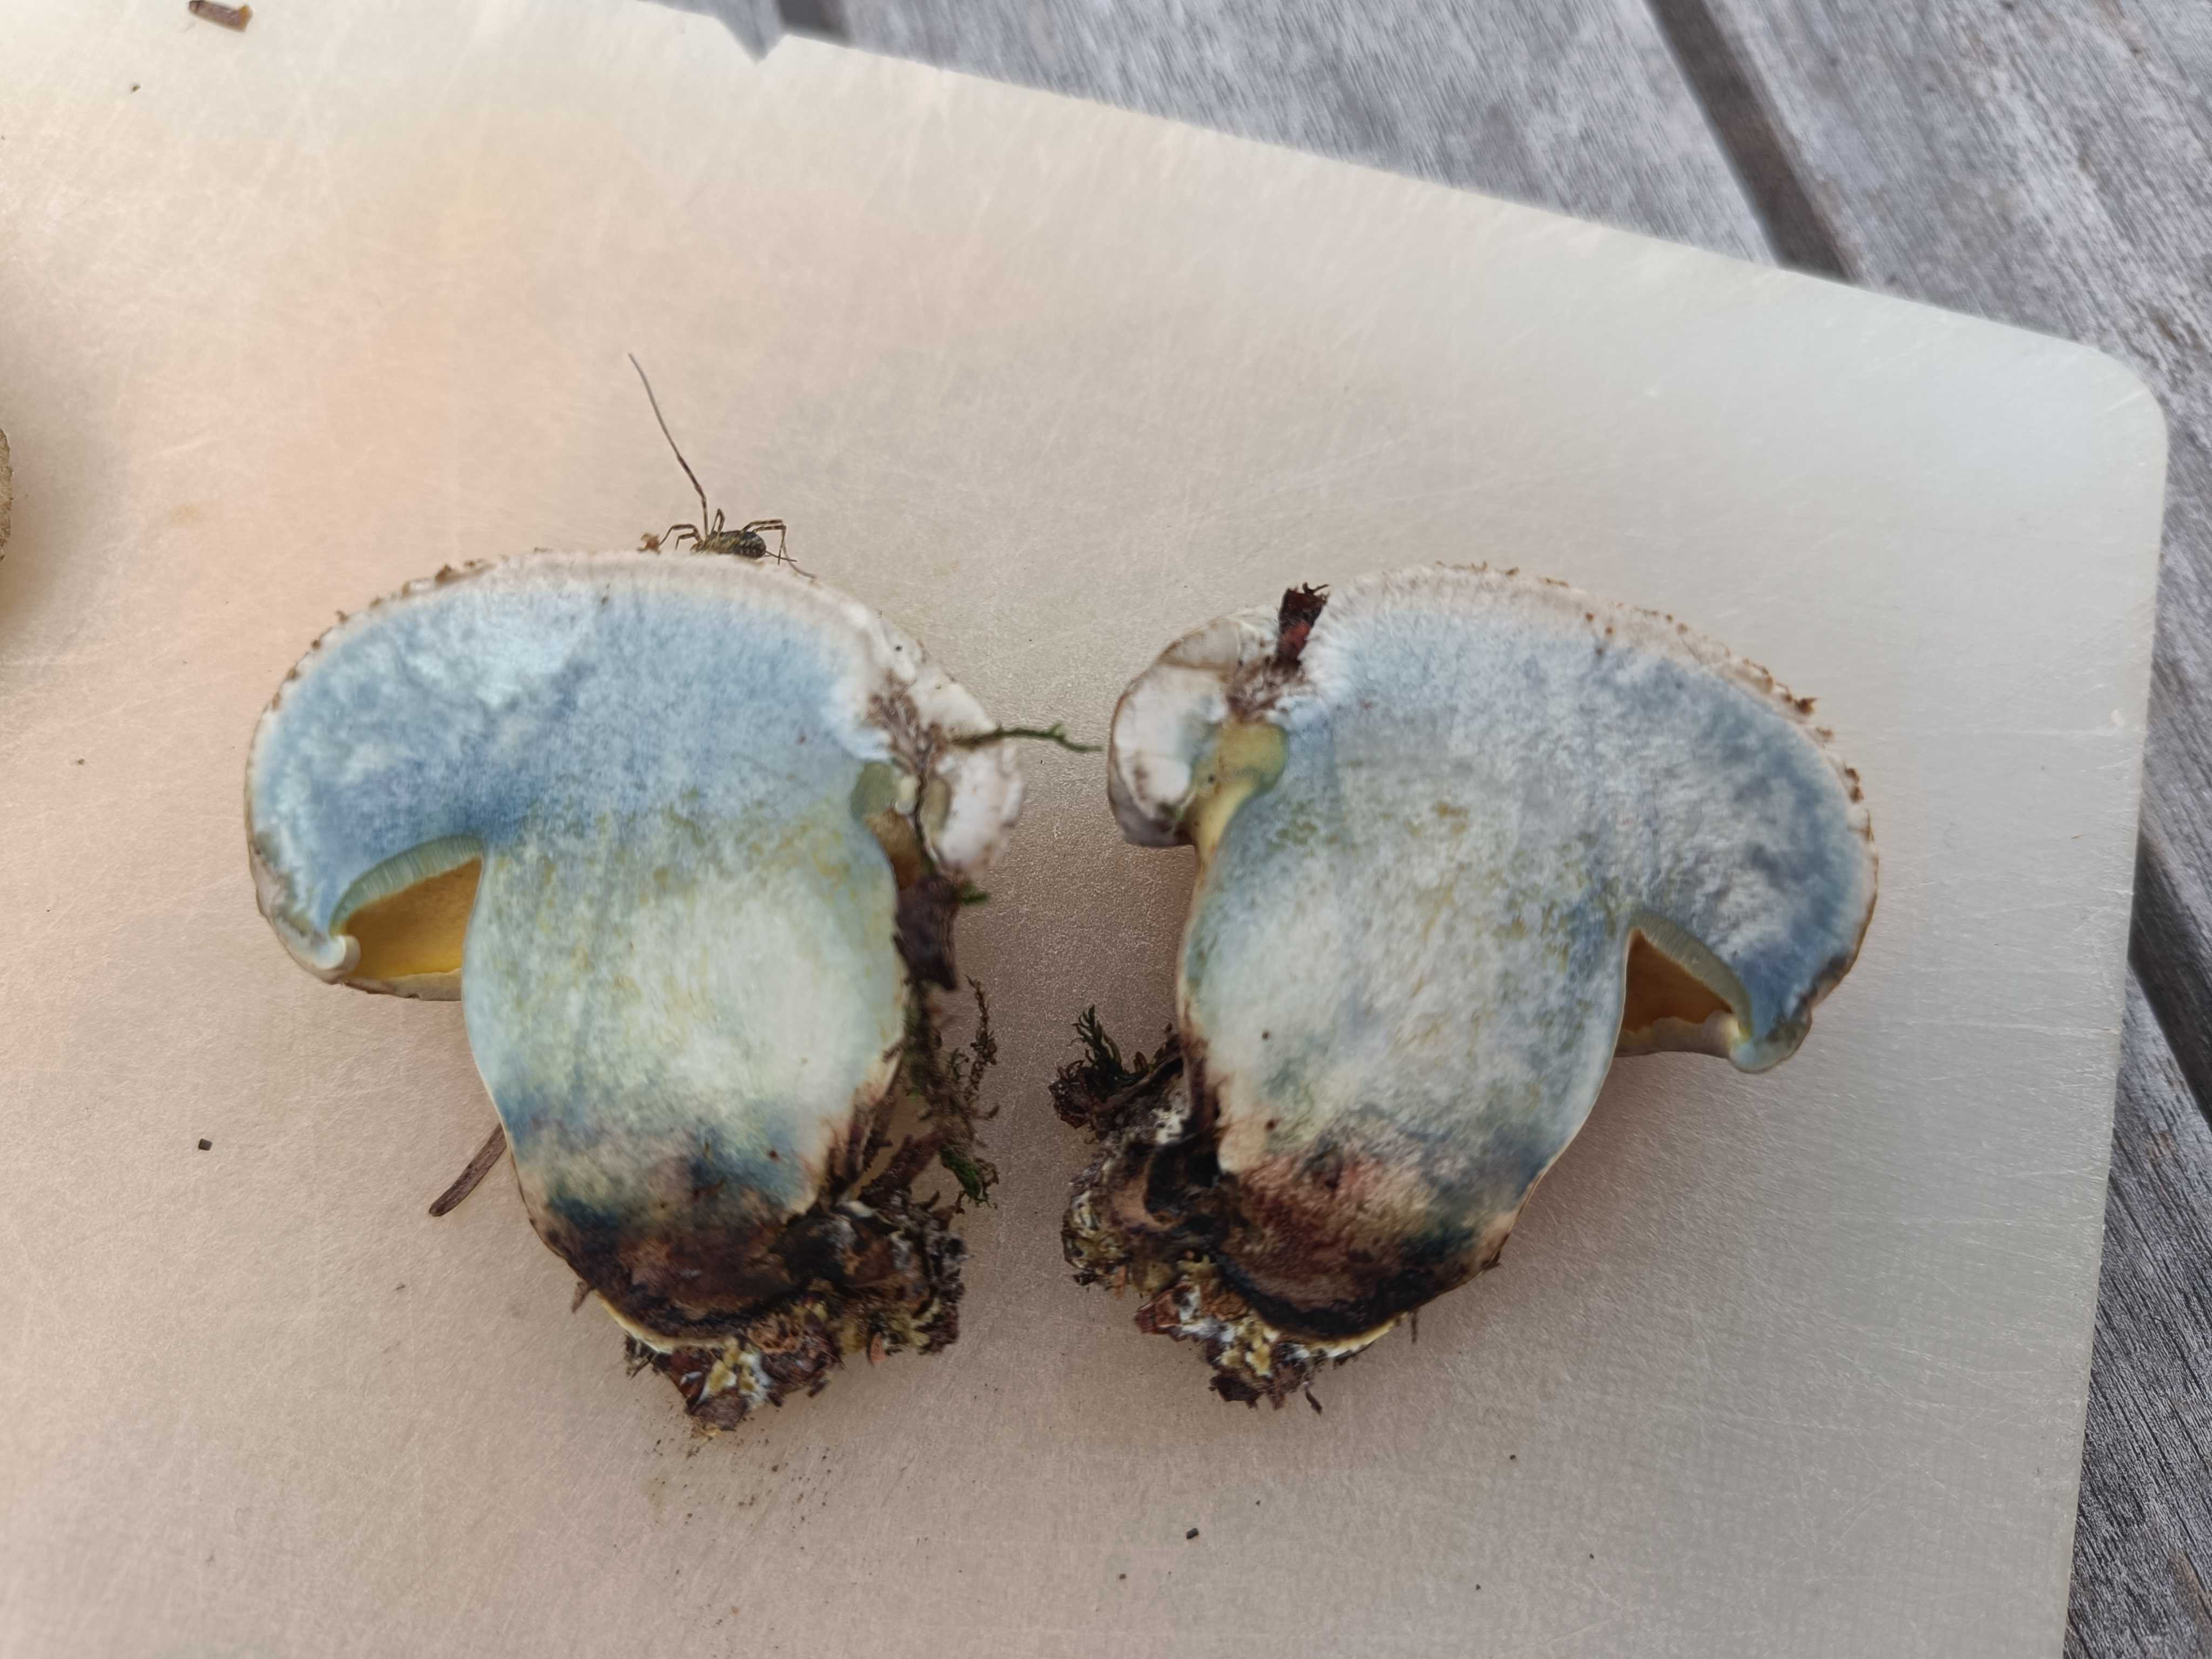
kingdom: Fungi
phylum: Basidiomycota
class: Agaricomycetes
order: Boletales
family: Boletaceae
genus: Caloboletus
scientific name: Caloboletus radicans
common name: rod-rørhat
